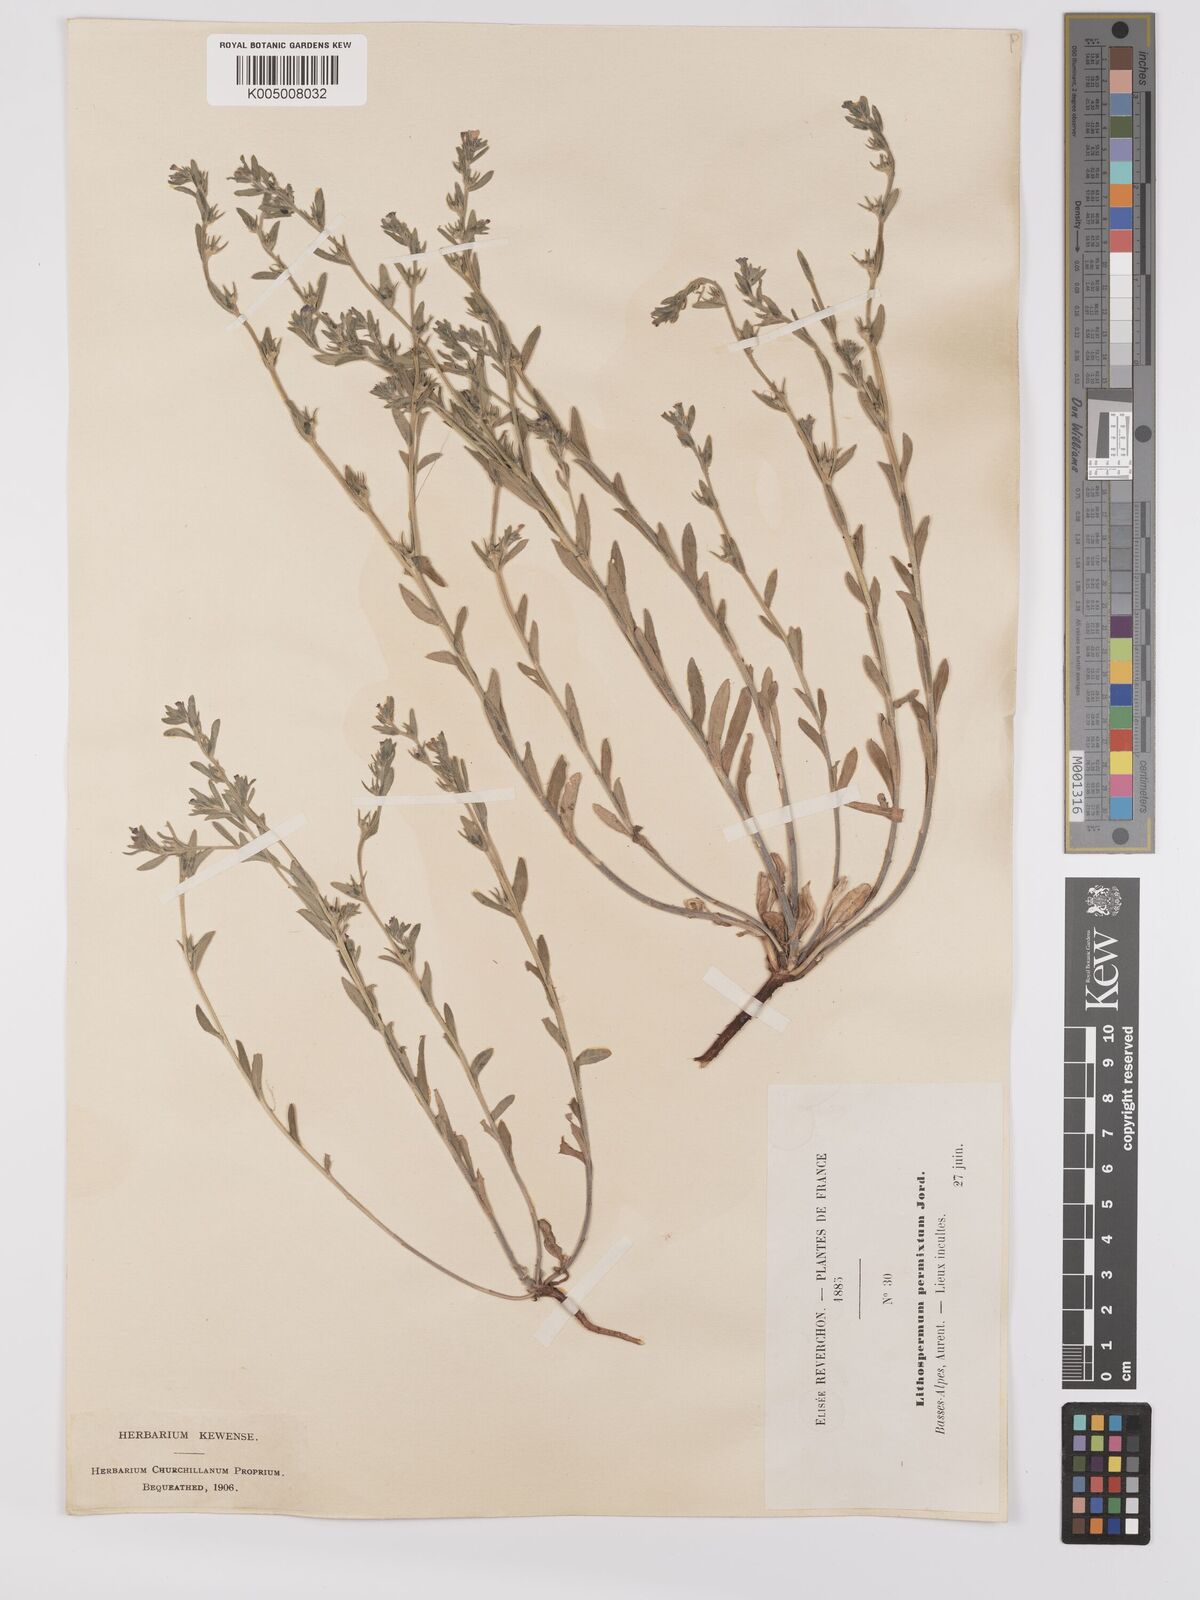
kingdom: Plantae
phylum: Tracheophyta
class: Magnoliopsida
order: Boraginales
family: Boraginaceae
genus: Buglossoides
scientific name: Buglossoides incrassata
